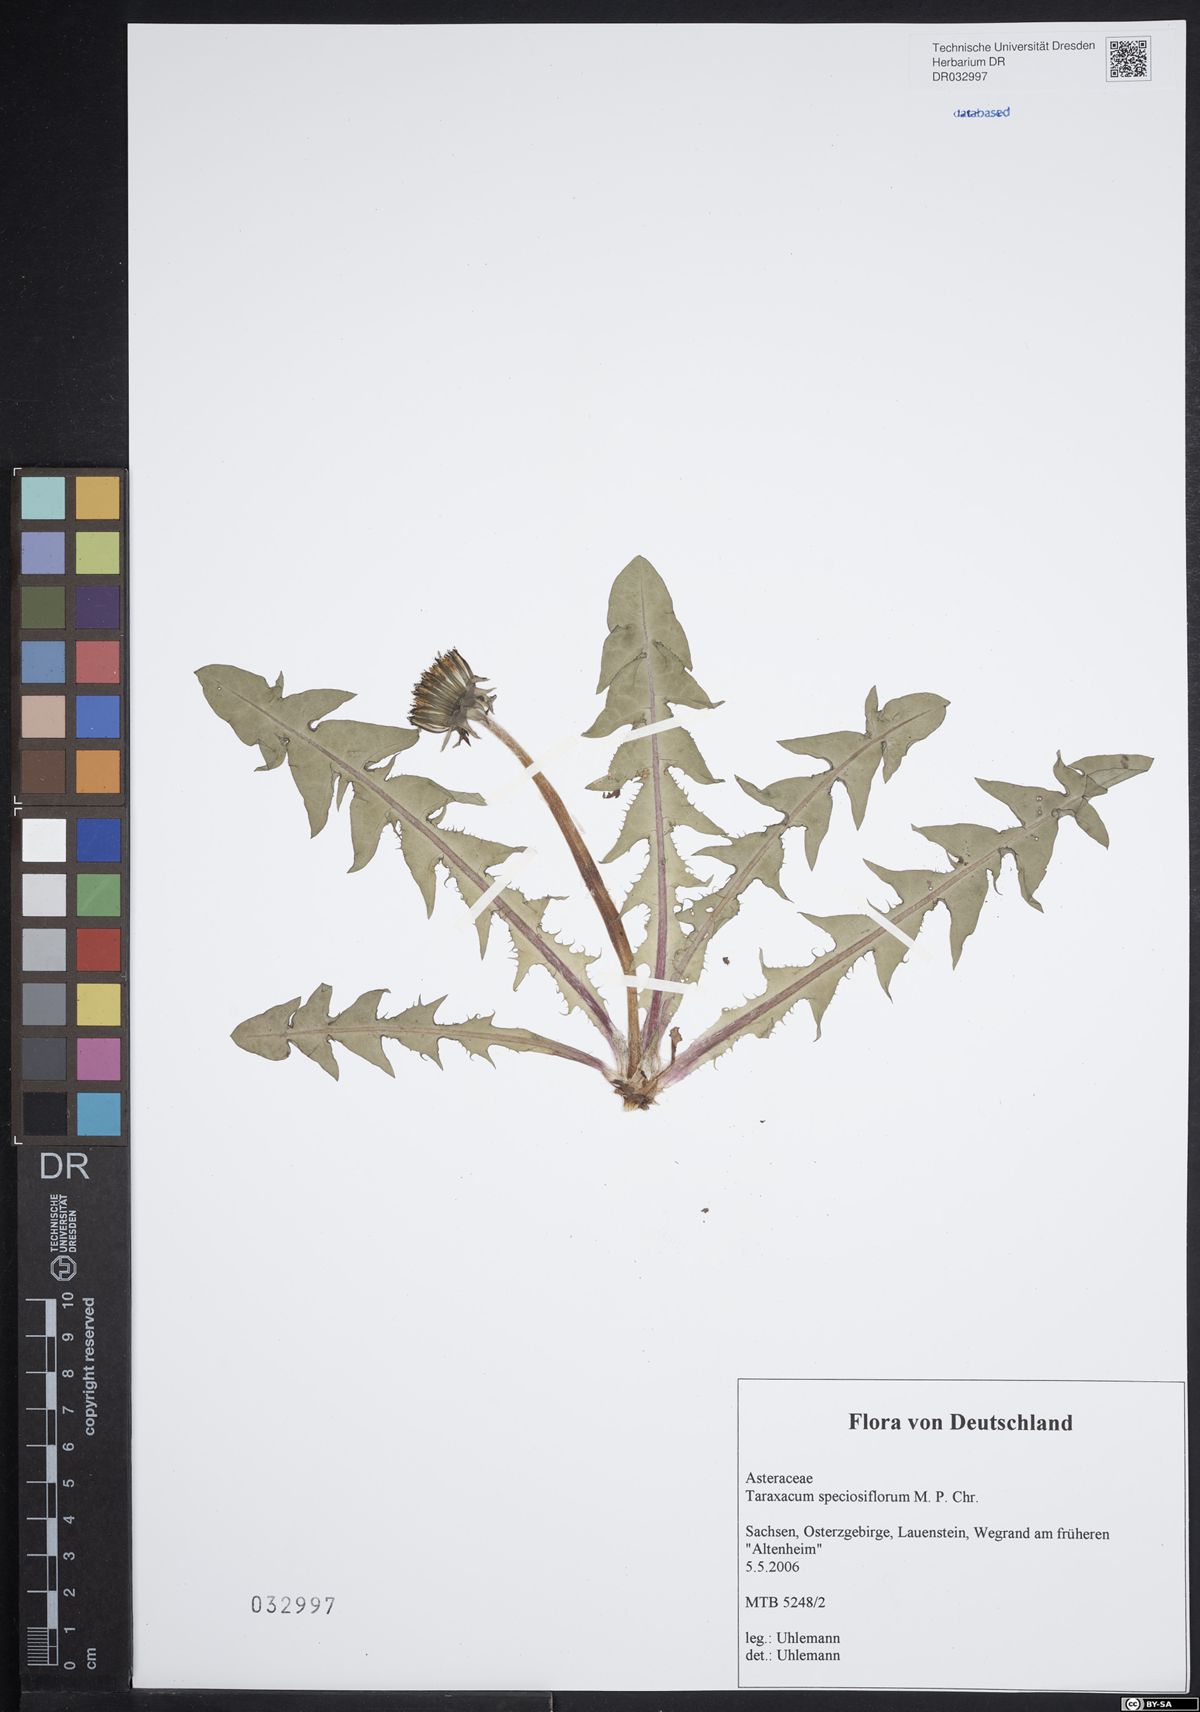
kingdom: Plantae
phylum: Tracheophyta
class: Magnoliopsida
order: Asterales
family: Asteraceae
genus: Taraxacum
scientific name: Taraxacum speciosiflorum
